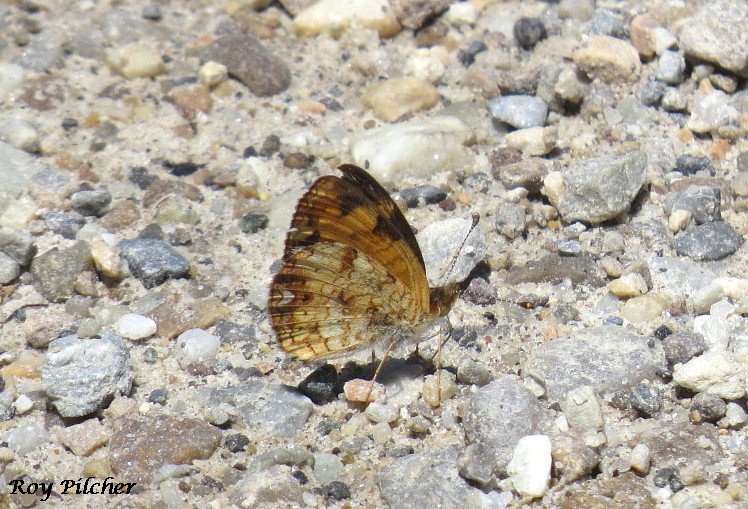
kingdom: Animalia
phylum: Arthropoda
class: Insecta
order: Lepidoptera
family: Nymphalidae
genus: Phyciodes
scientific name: Phyciodes tharos
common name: Pearl Crescent
